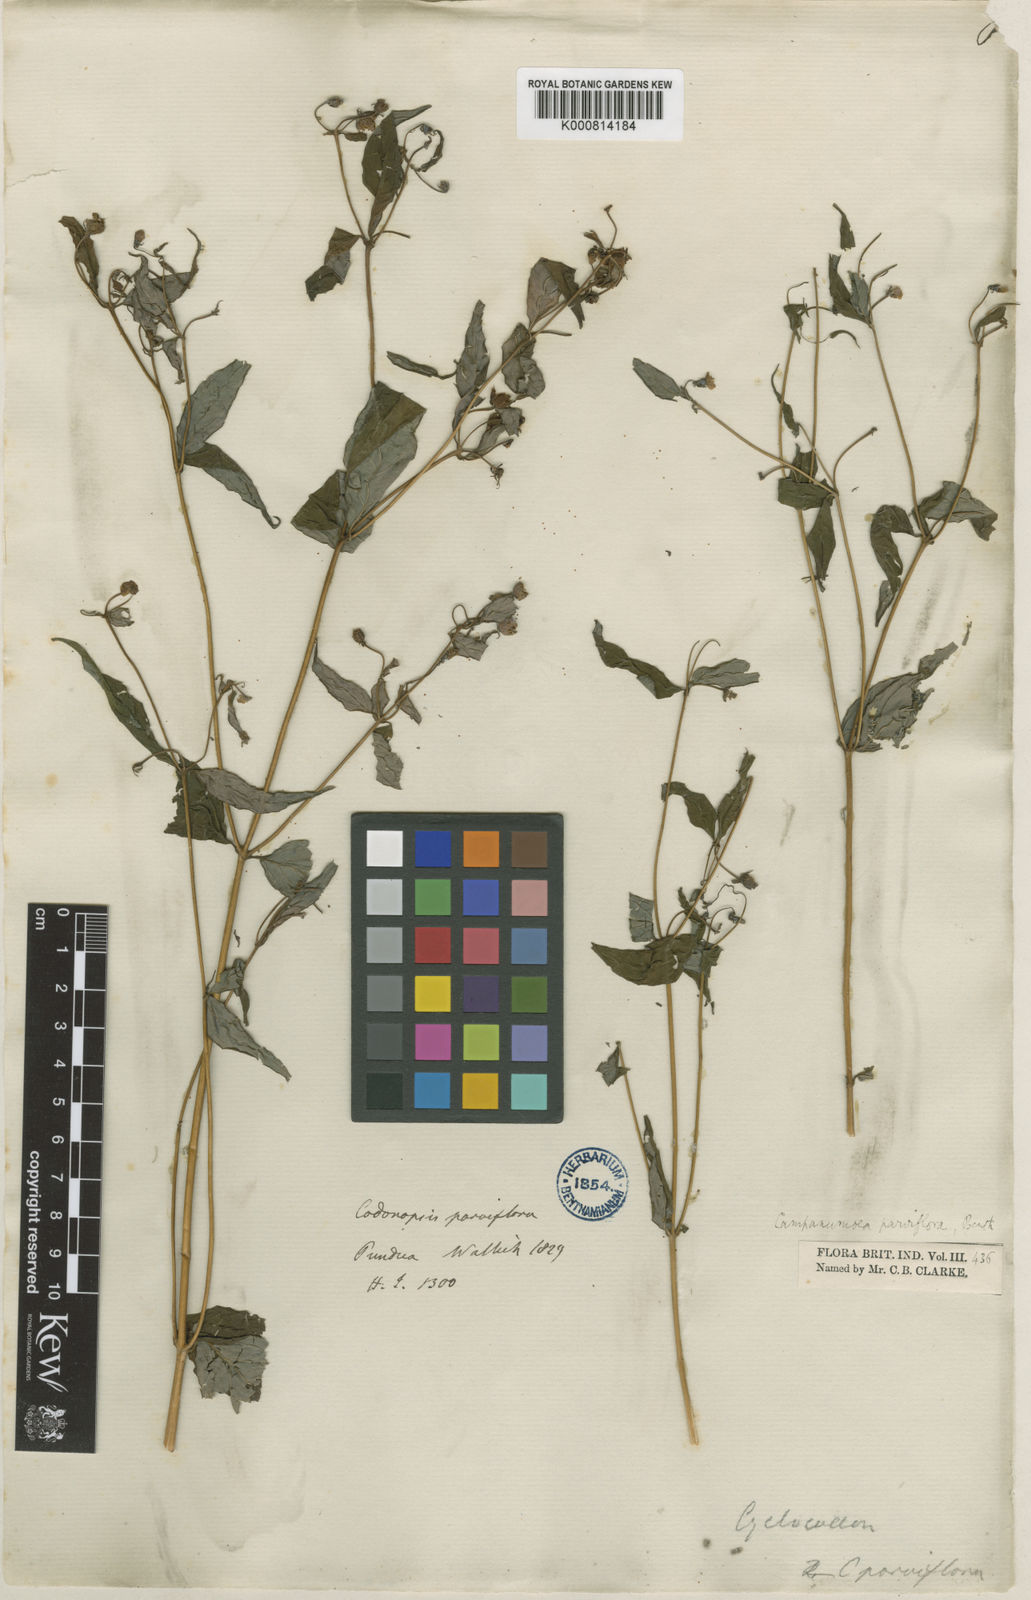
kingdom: Plantae
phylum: Tracheophyta
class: Magnoliopsida
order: Asterales
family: Campanulaceae
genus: Cyclocodon
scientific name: Cyclocodon parviflorus
